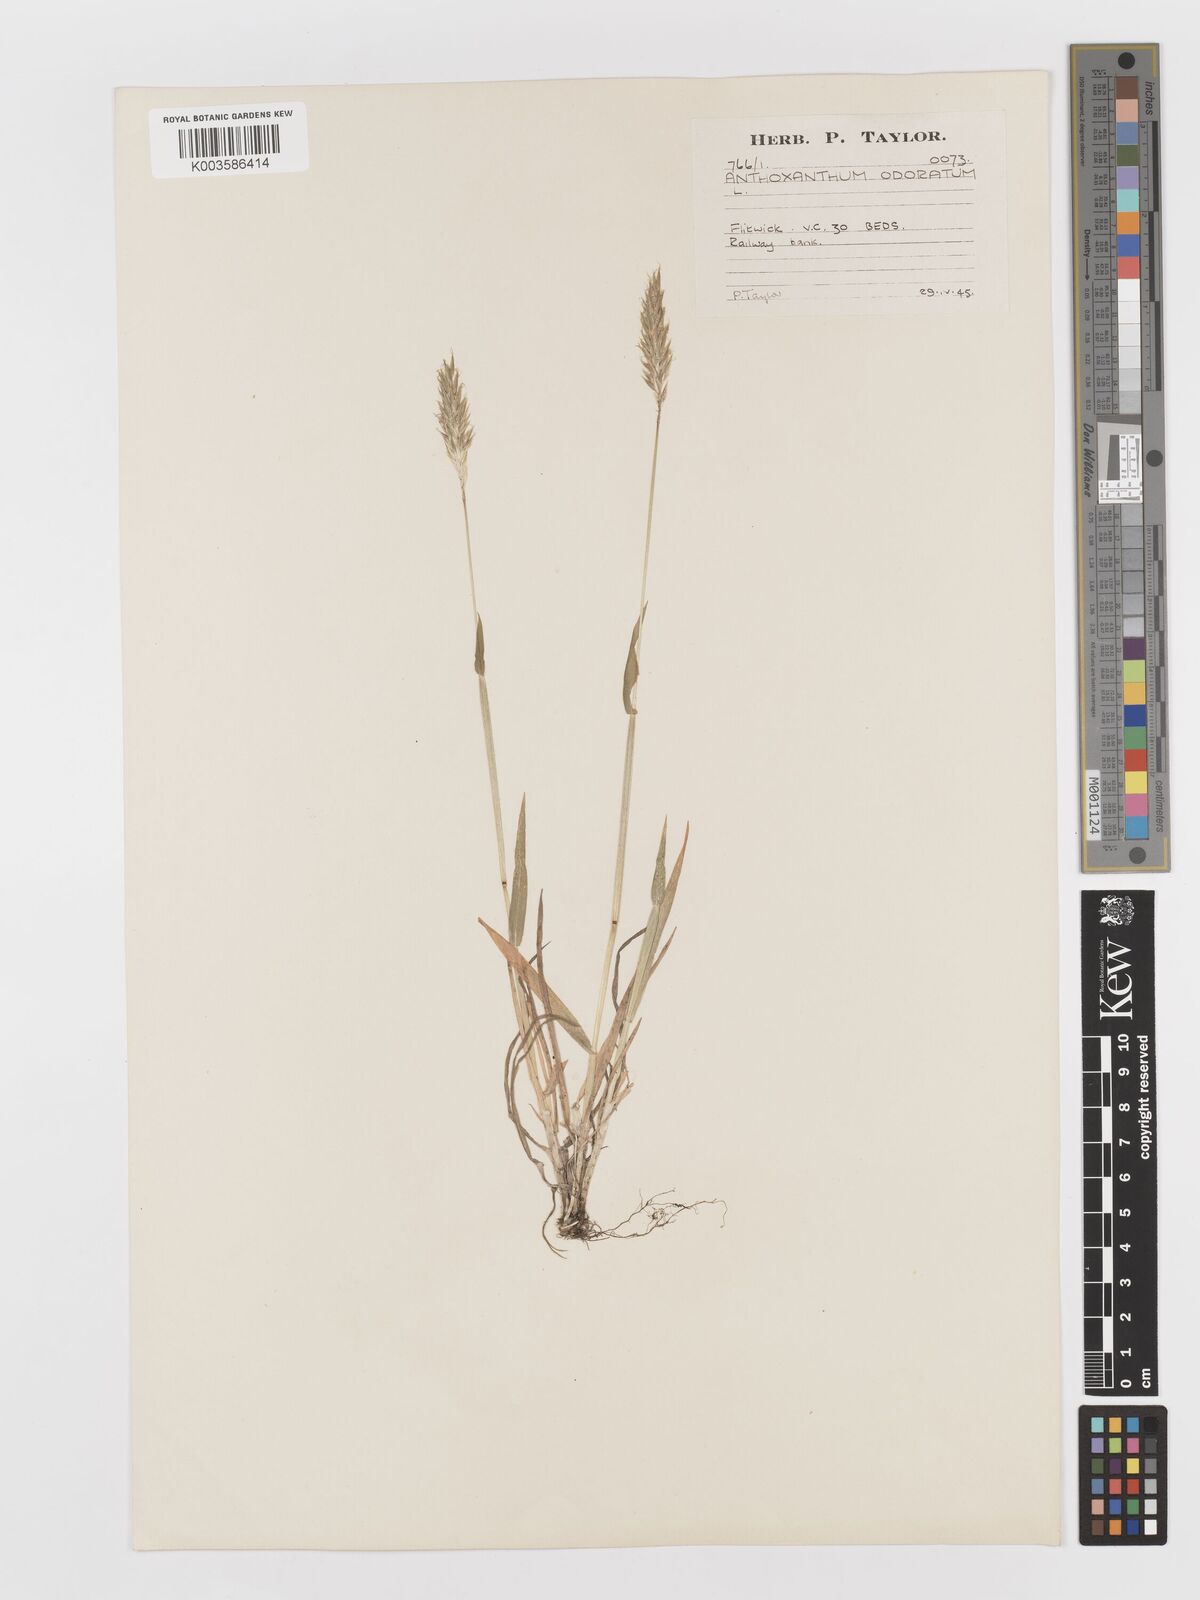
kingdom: Plantae
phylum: Tracheophyta
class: Liliopsida
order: Poales
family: Poaceae
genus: Anthoxanthum
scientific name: Anthoxanthum odoratum
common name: Sweet vernalgrass
